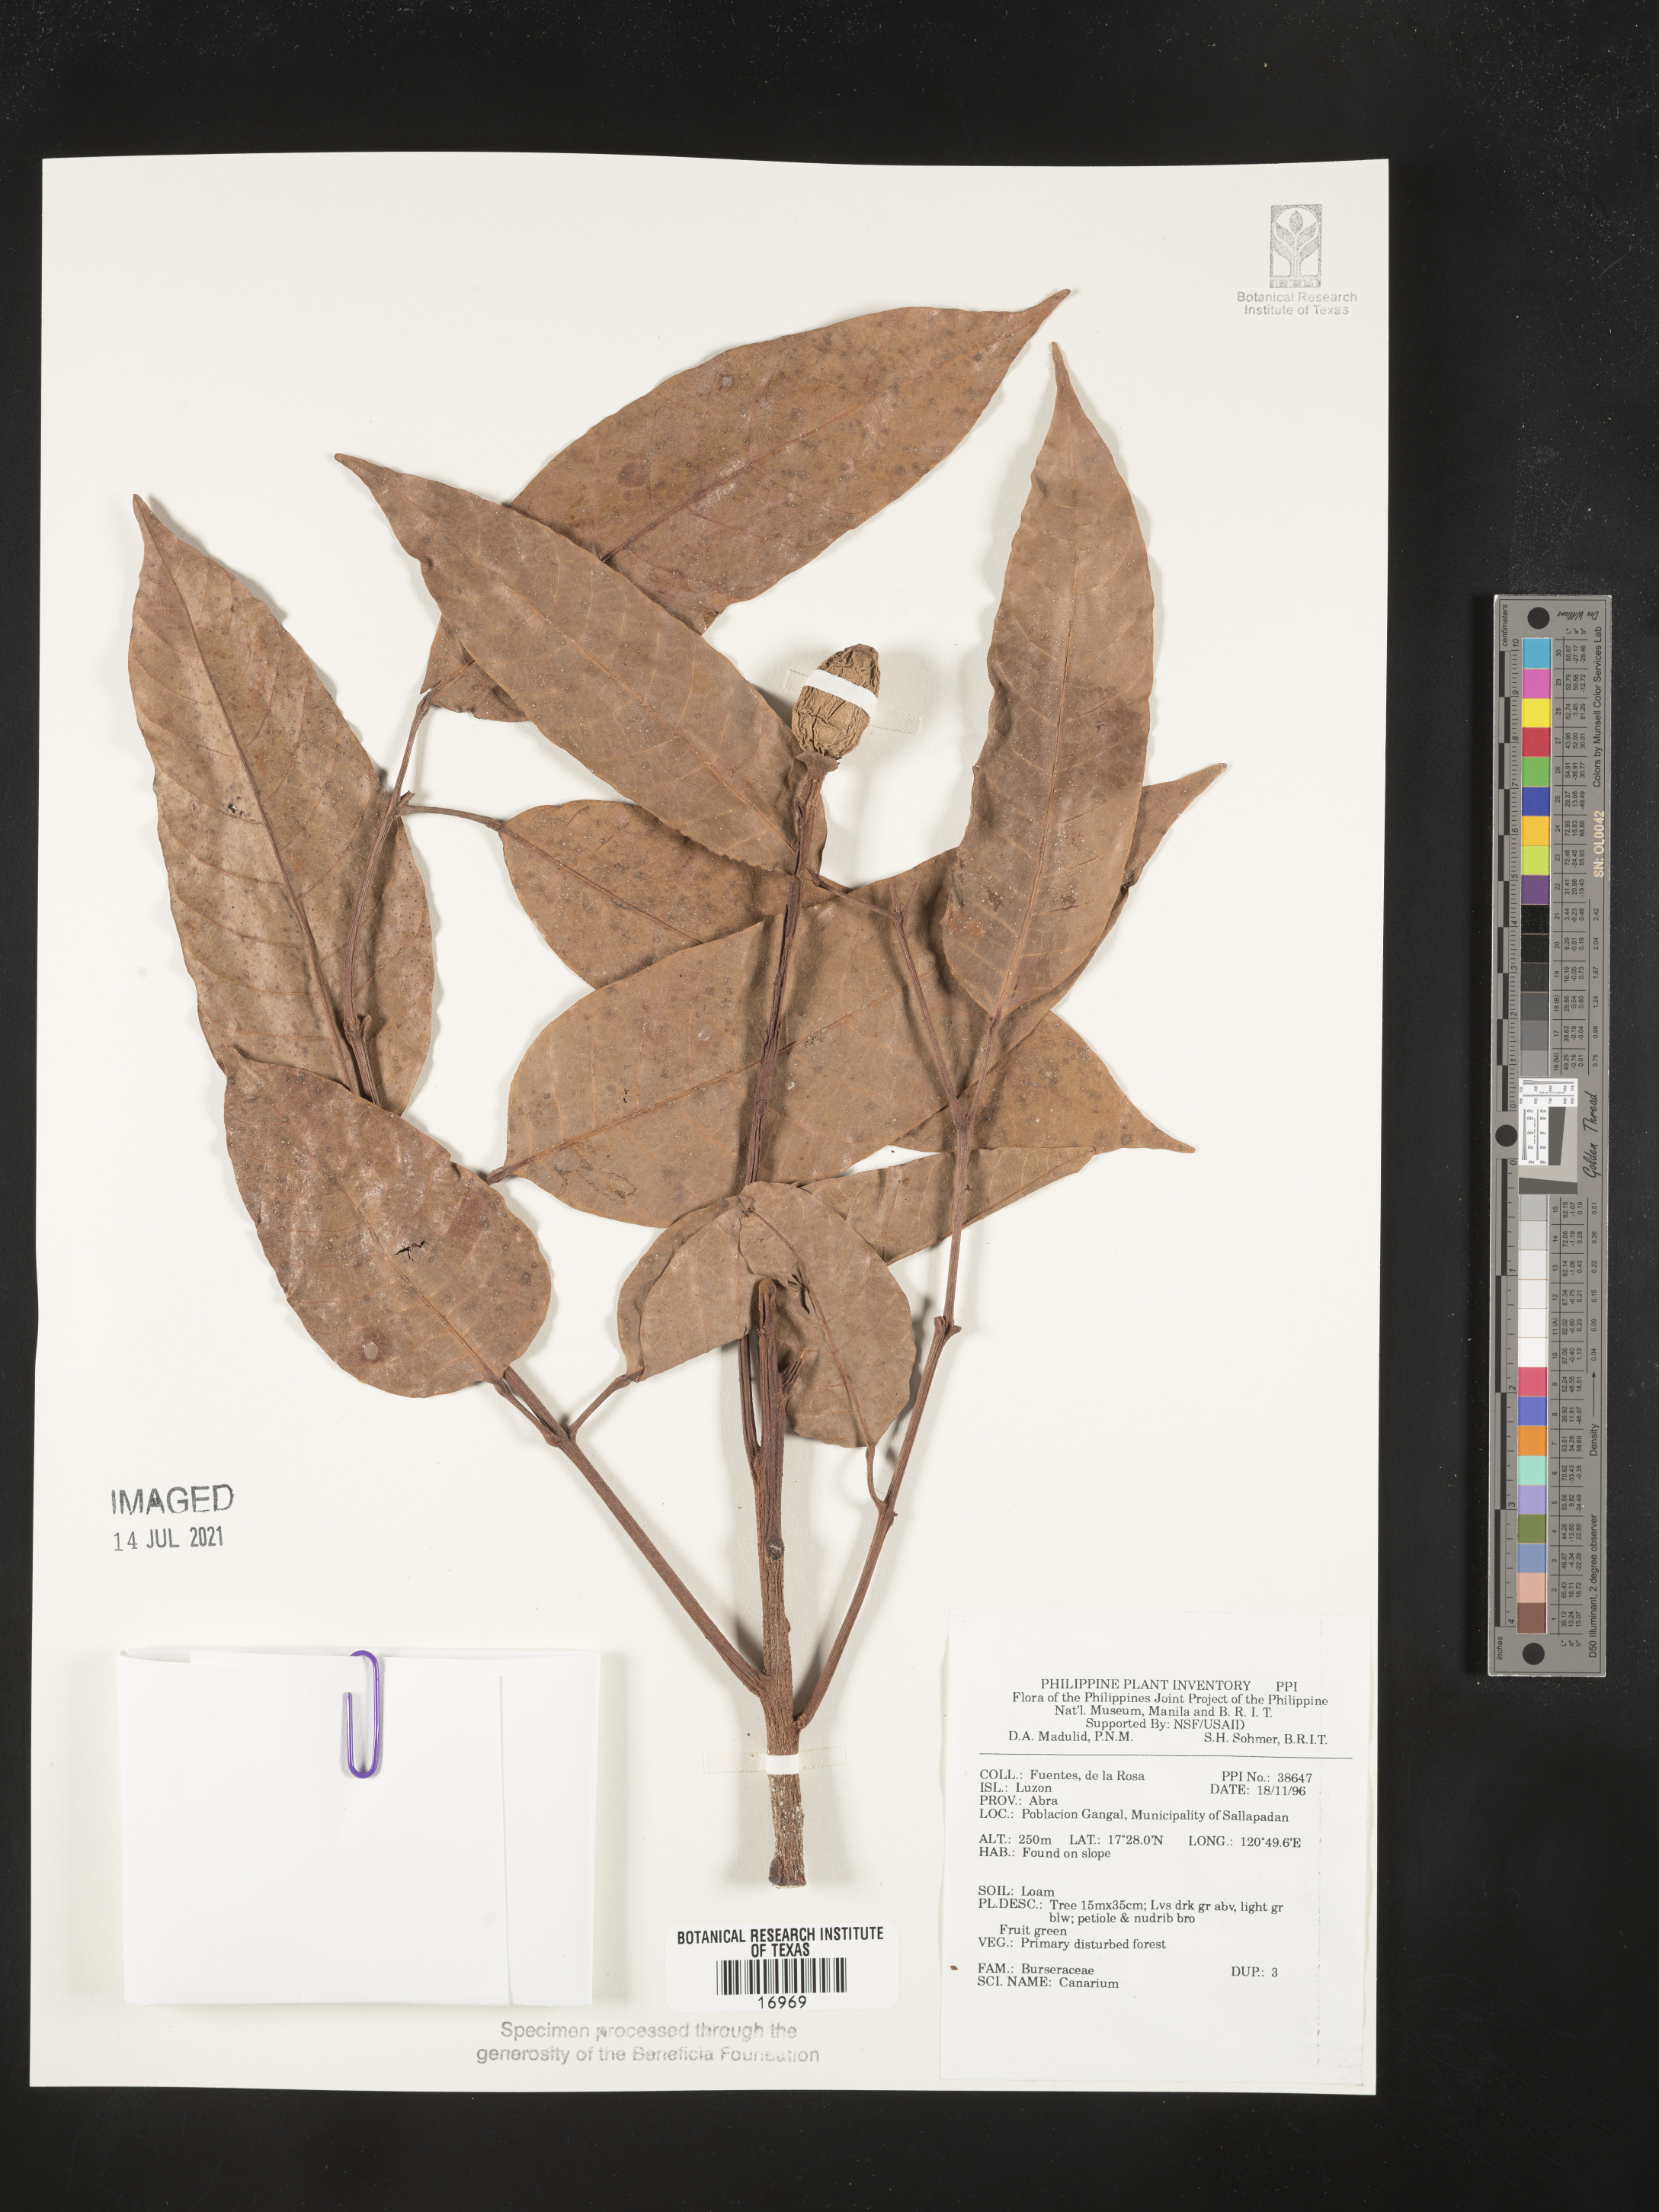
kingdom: Plantae
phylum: Tracheophyta
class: Magnoliopsida
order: Sapindales
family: Burseraceae
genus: Canarium
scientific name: Canarium
